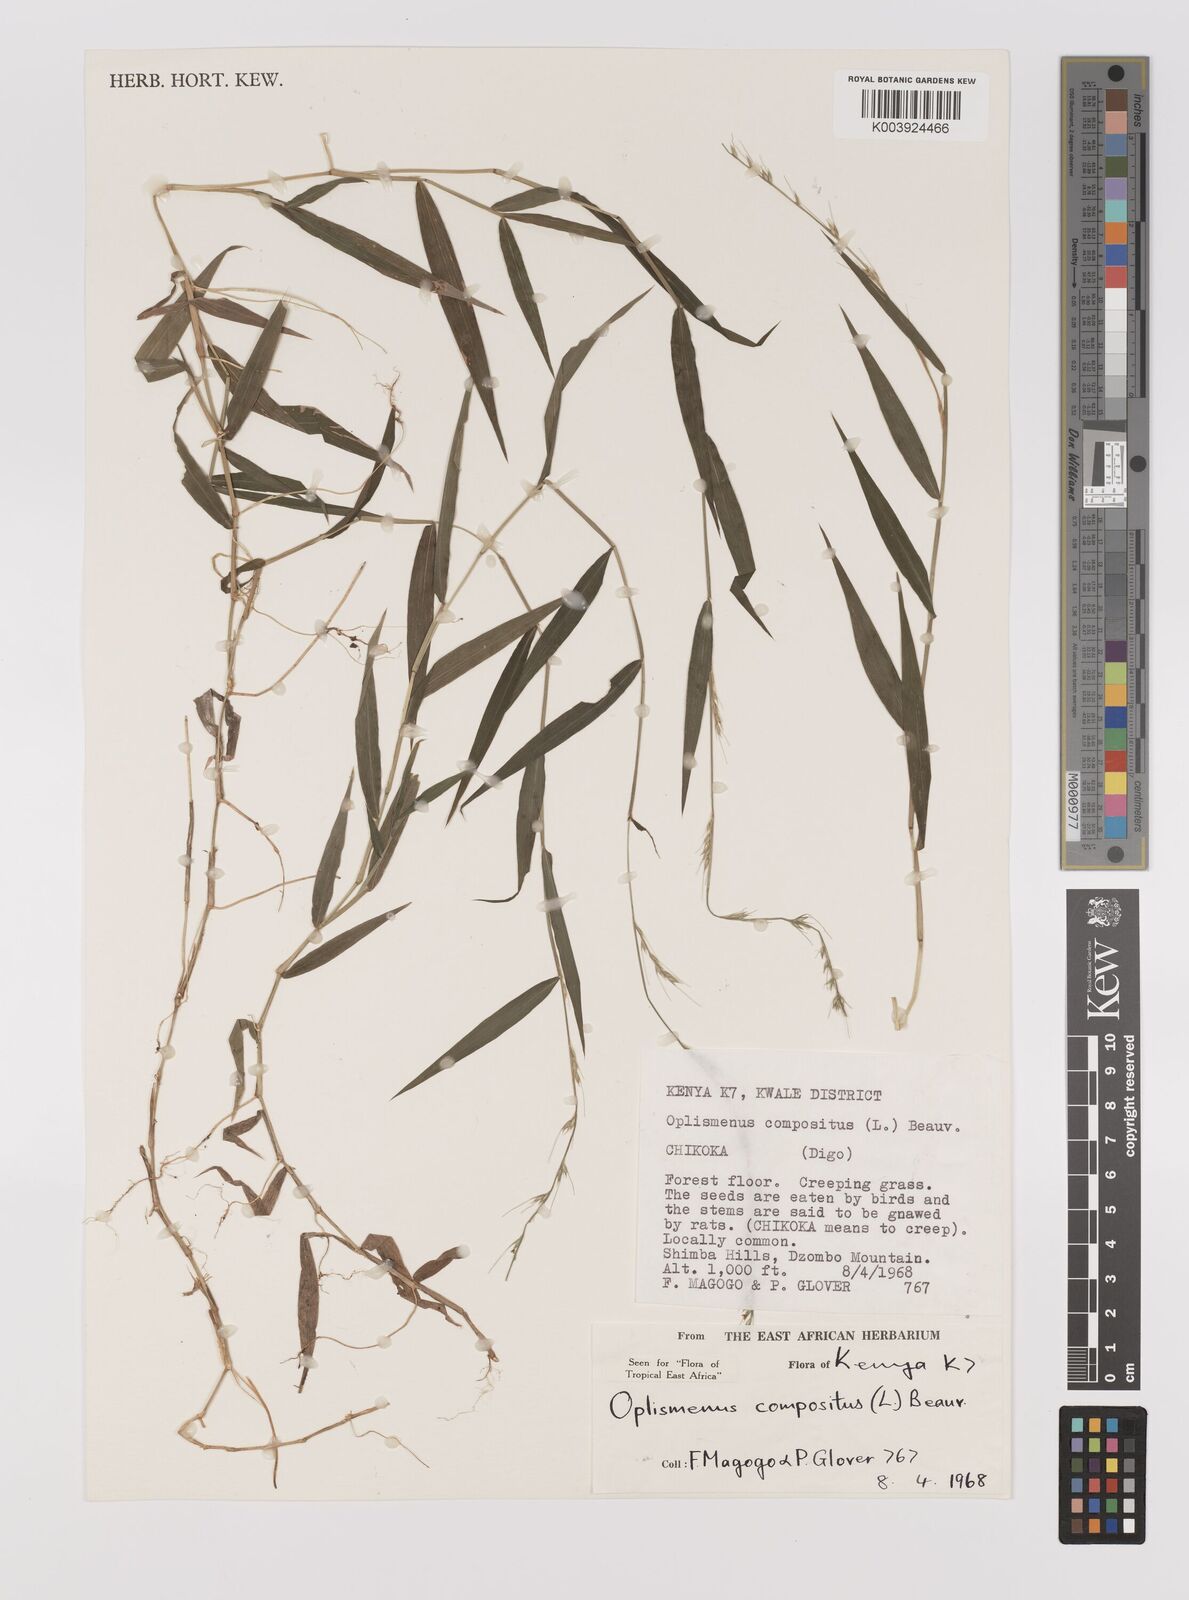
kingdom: Plantae
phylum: Tracheophyta
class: Liliopsida
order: Poales
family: Poaceae
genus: Oplismenus
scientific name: Oplismenus compositus
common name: Running mountain grass
